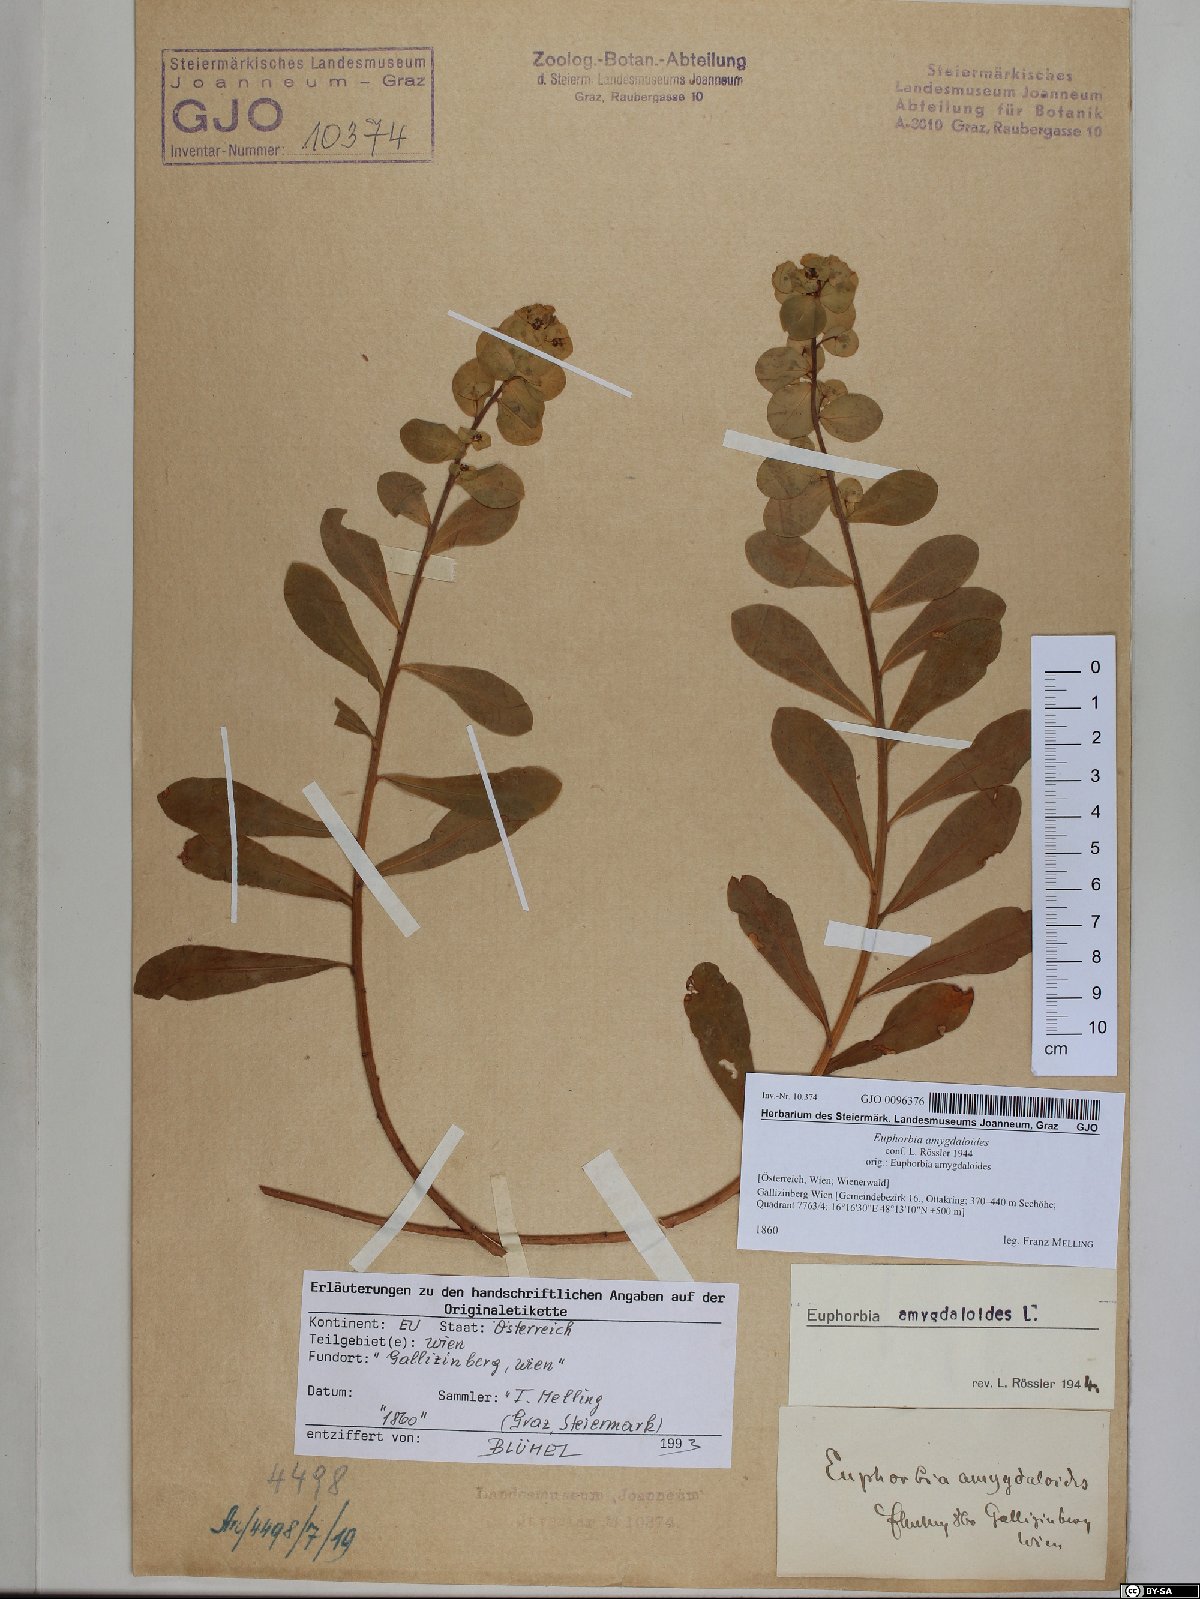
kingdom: Plantae
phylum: Tracheophyta
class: Magnoliopsida
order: Malpighiales
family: Euphorbiaceae
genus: Euphorbia
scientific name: Euphorbia amygdaloides
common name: Wood spurge
